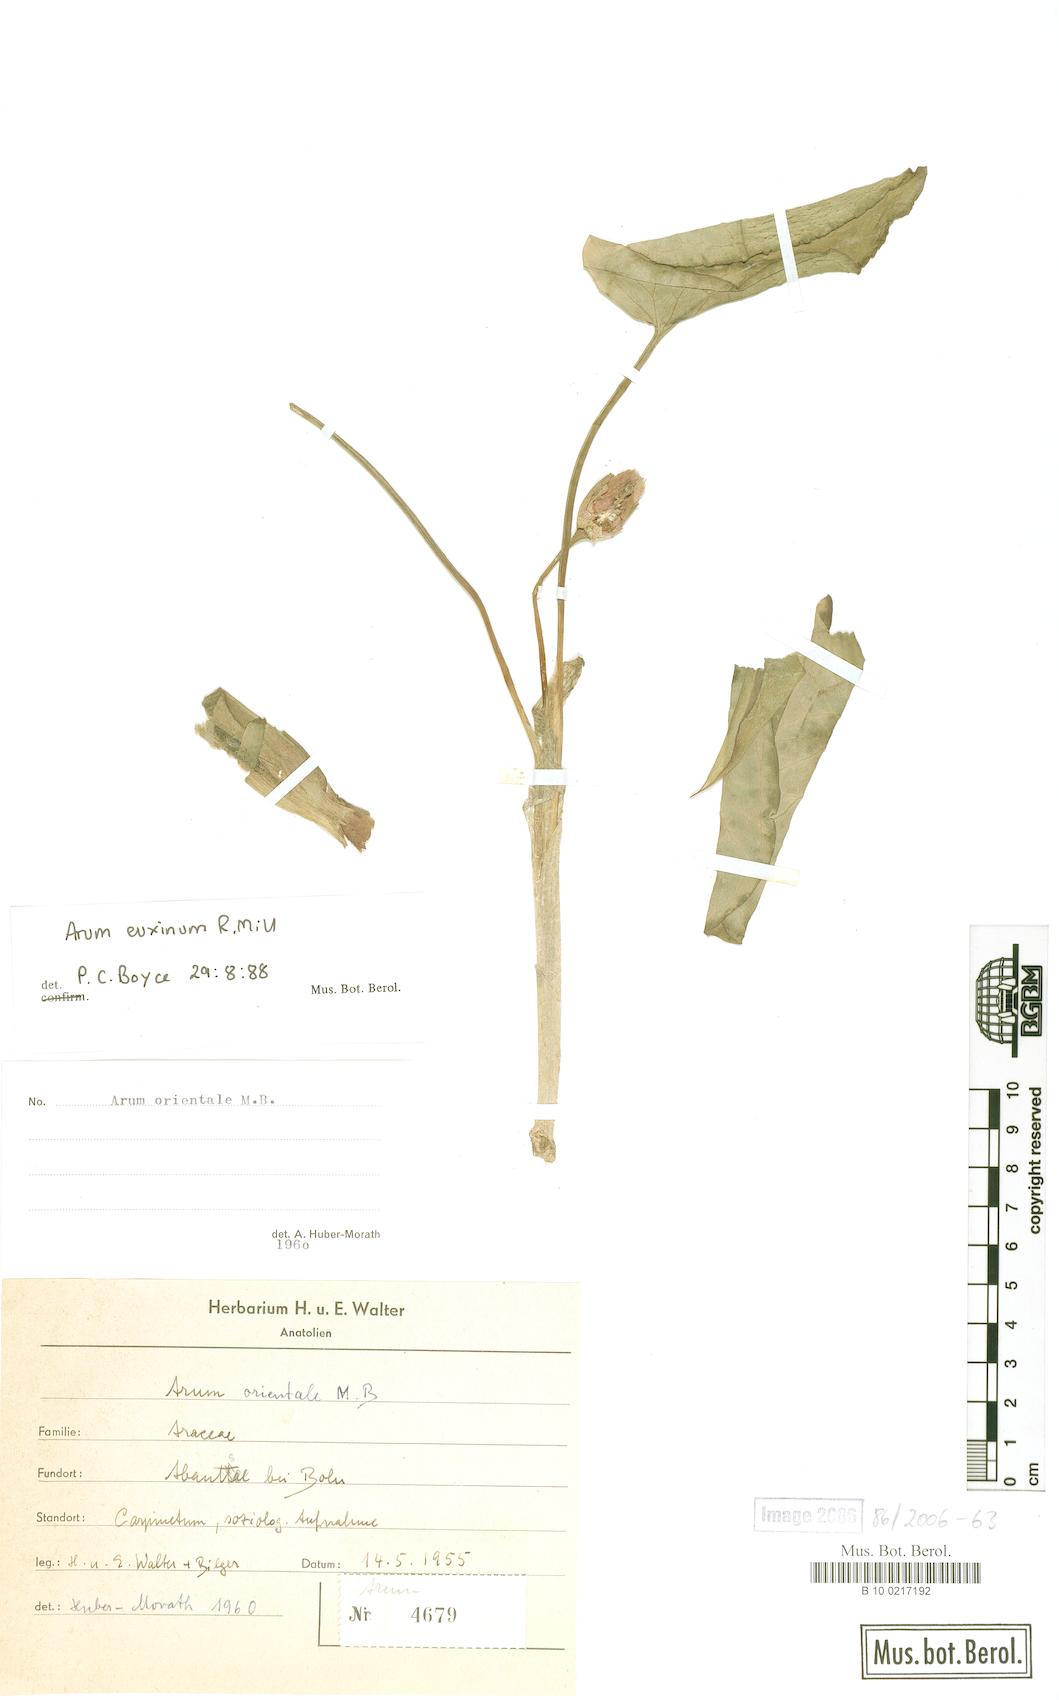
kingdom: Plantae
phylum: Tracheophyta
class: Liliopsida
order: Alismatales
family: Araceae
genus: Arum
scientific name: Arum euxinum
